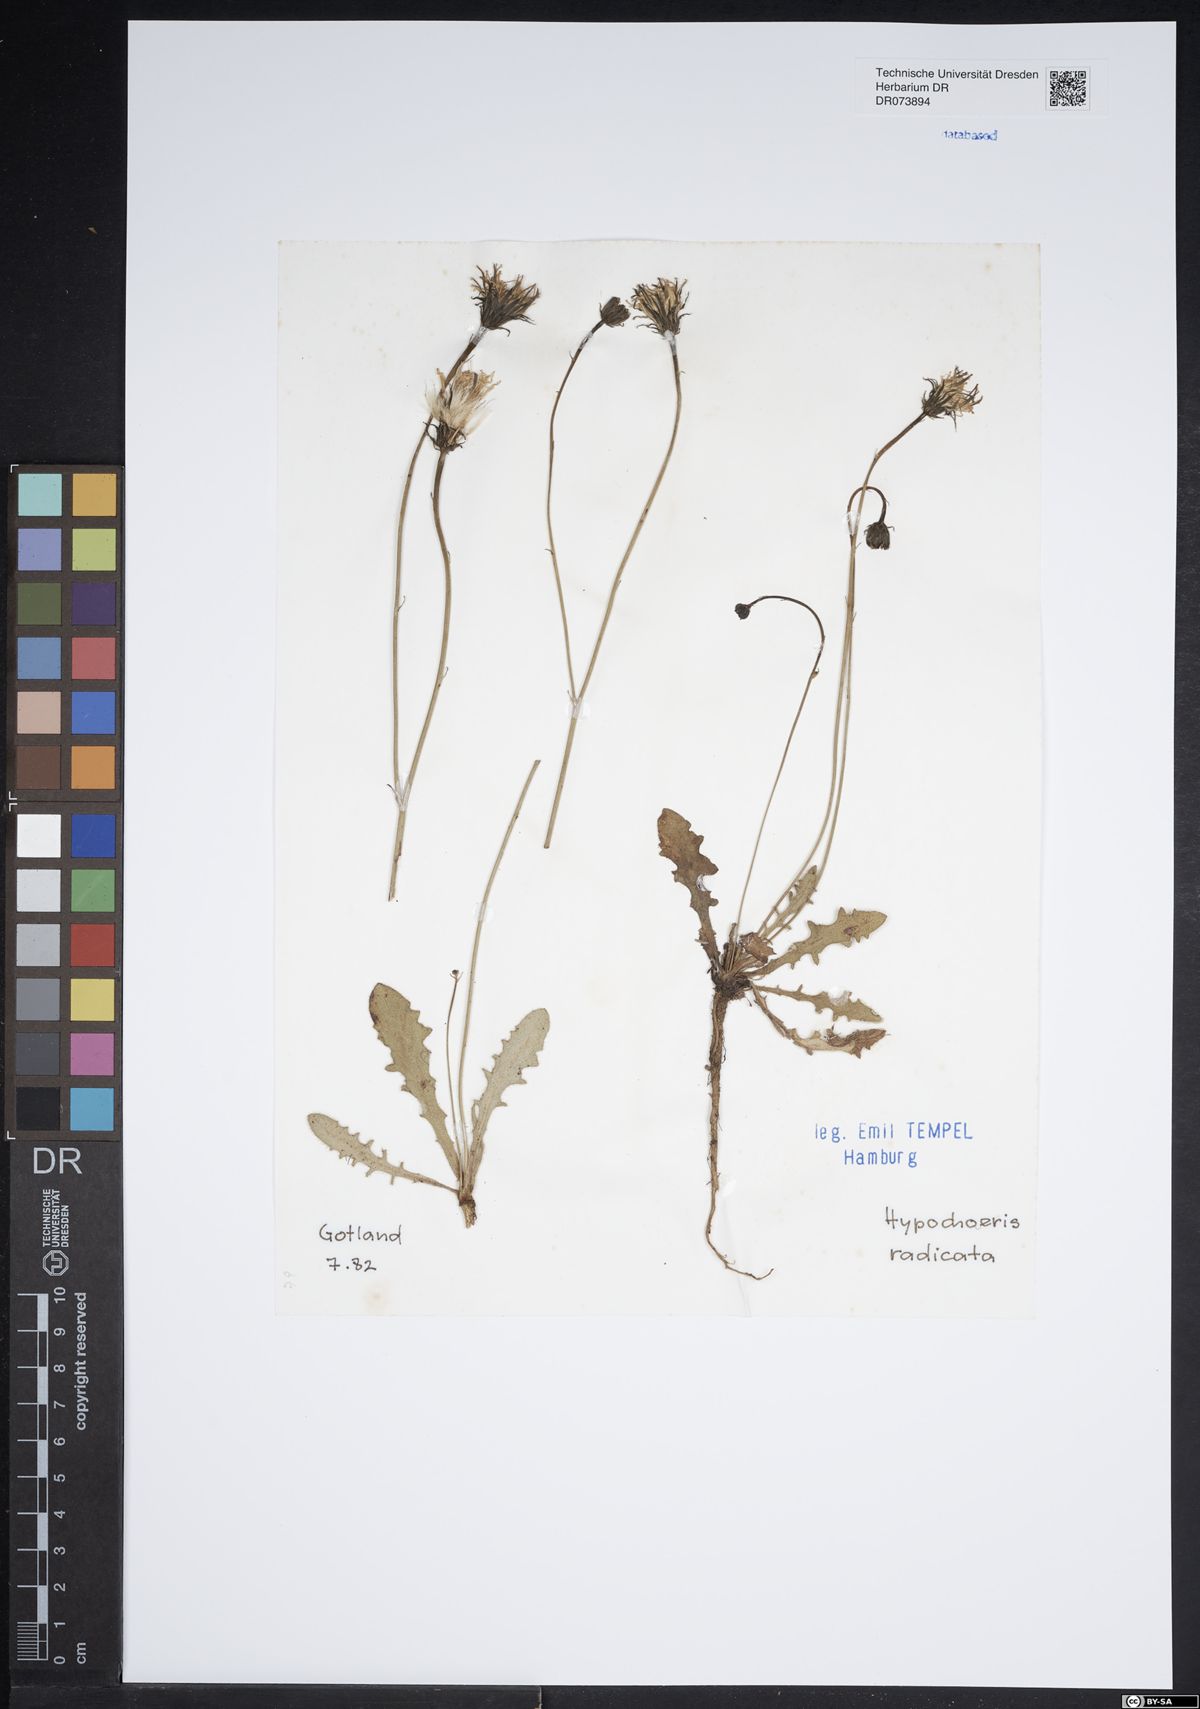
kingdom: Plantae
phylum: Tracheophyta
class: Magnoliopsida
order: Asterales
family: Asteraceae
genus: Hypochaeris
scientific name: Hypochaeris radicata
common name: Flatweed
